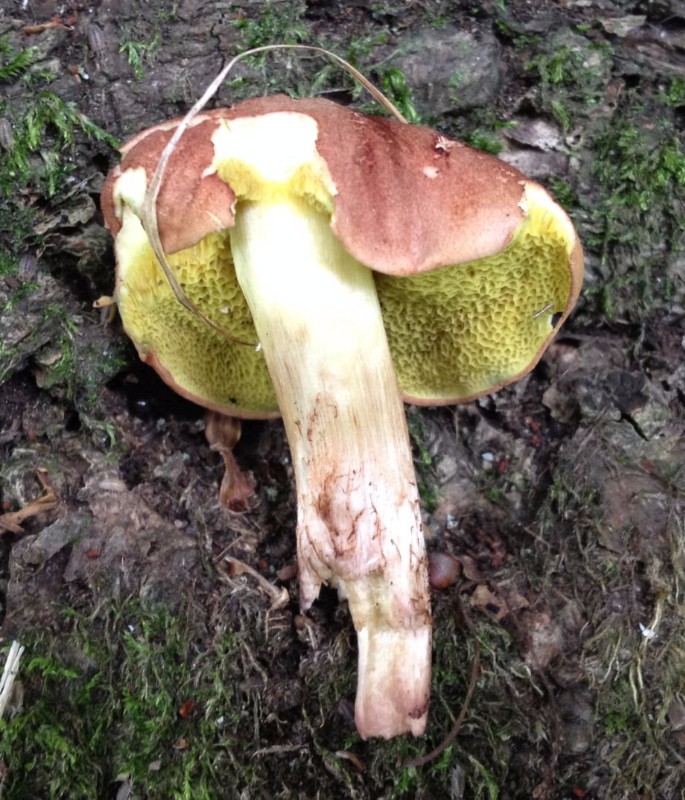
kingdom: Fungi
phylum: Basidiomycota
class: Agaricomycetes
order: Boletales
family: Boletaceae
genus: Xerocomus
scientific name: Xerocomus
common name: filtrørhat
